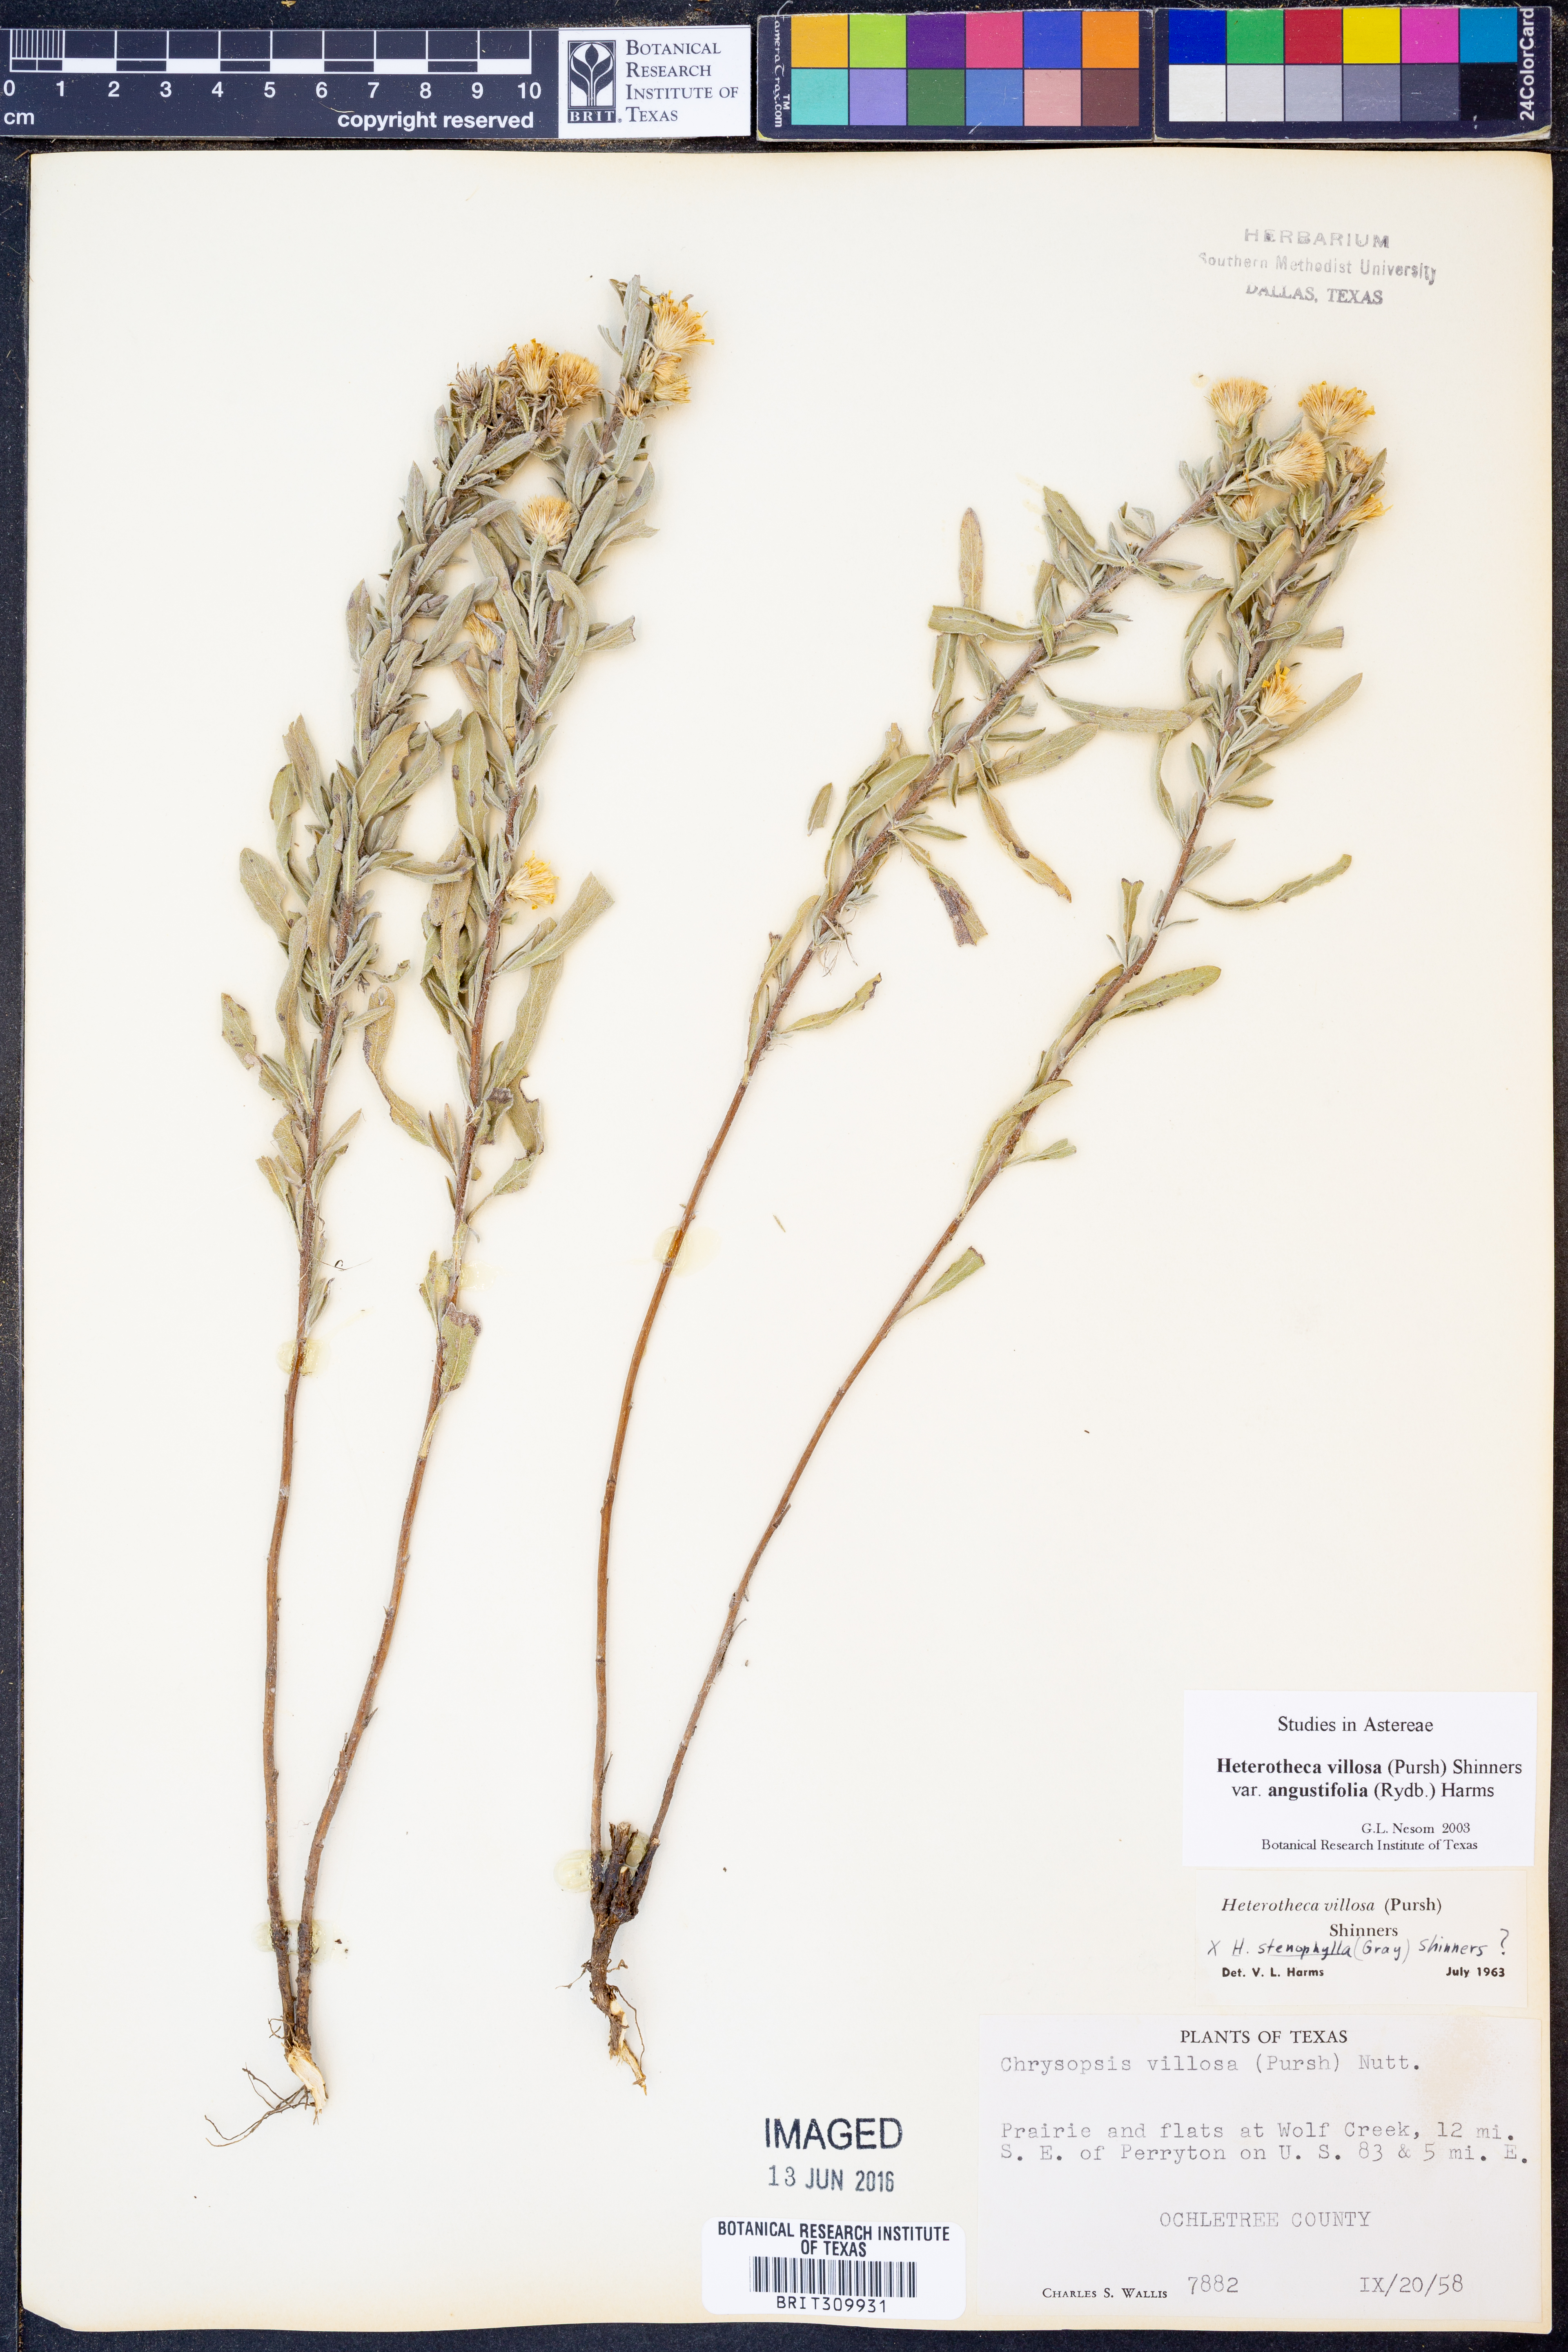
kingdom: Plantae
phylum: Tracheophyta
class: Magnoliopsida
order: Asterales
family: Asteraceae
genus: Heterotheca
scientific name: Heterotheca angustifolia
